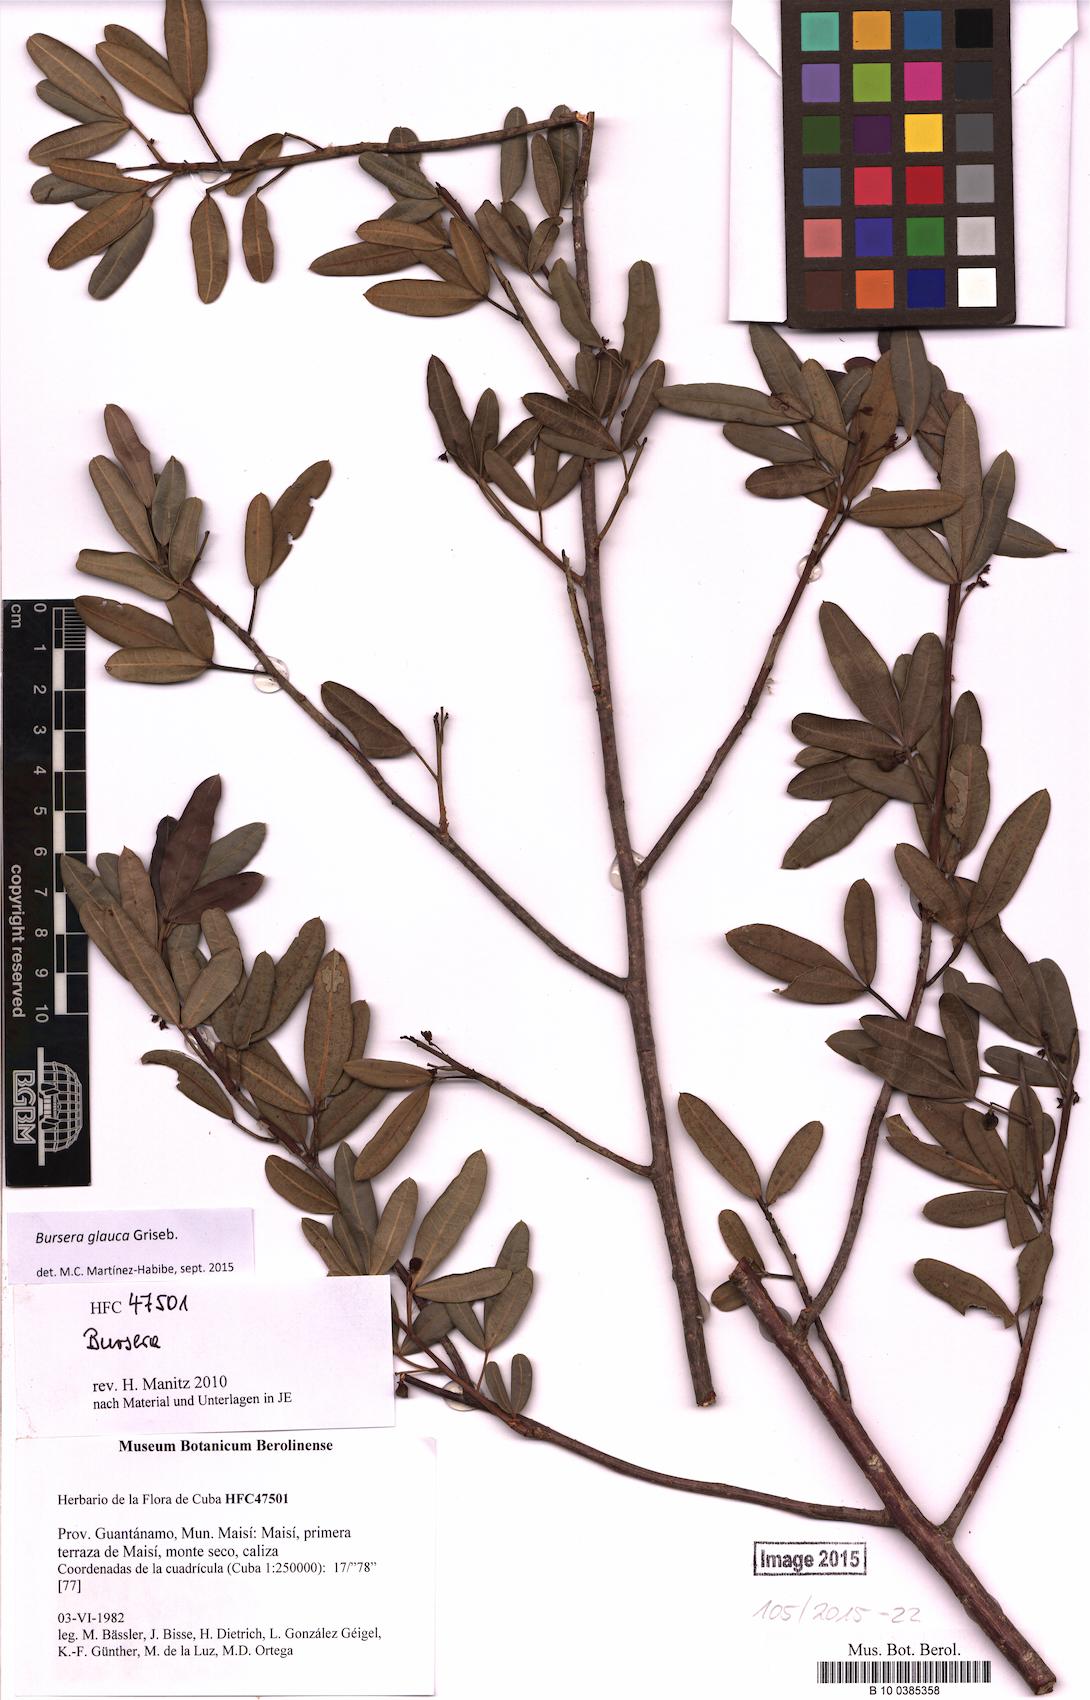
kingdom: Plantae
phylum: Tracheophyta
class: Magnoliopsida
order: Sapindales
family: Burseraceae
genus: Bursera
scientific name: Bursera glauca
